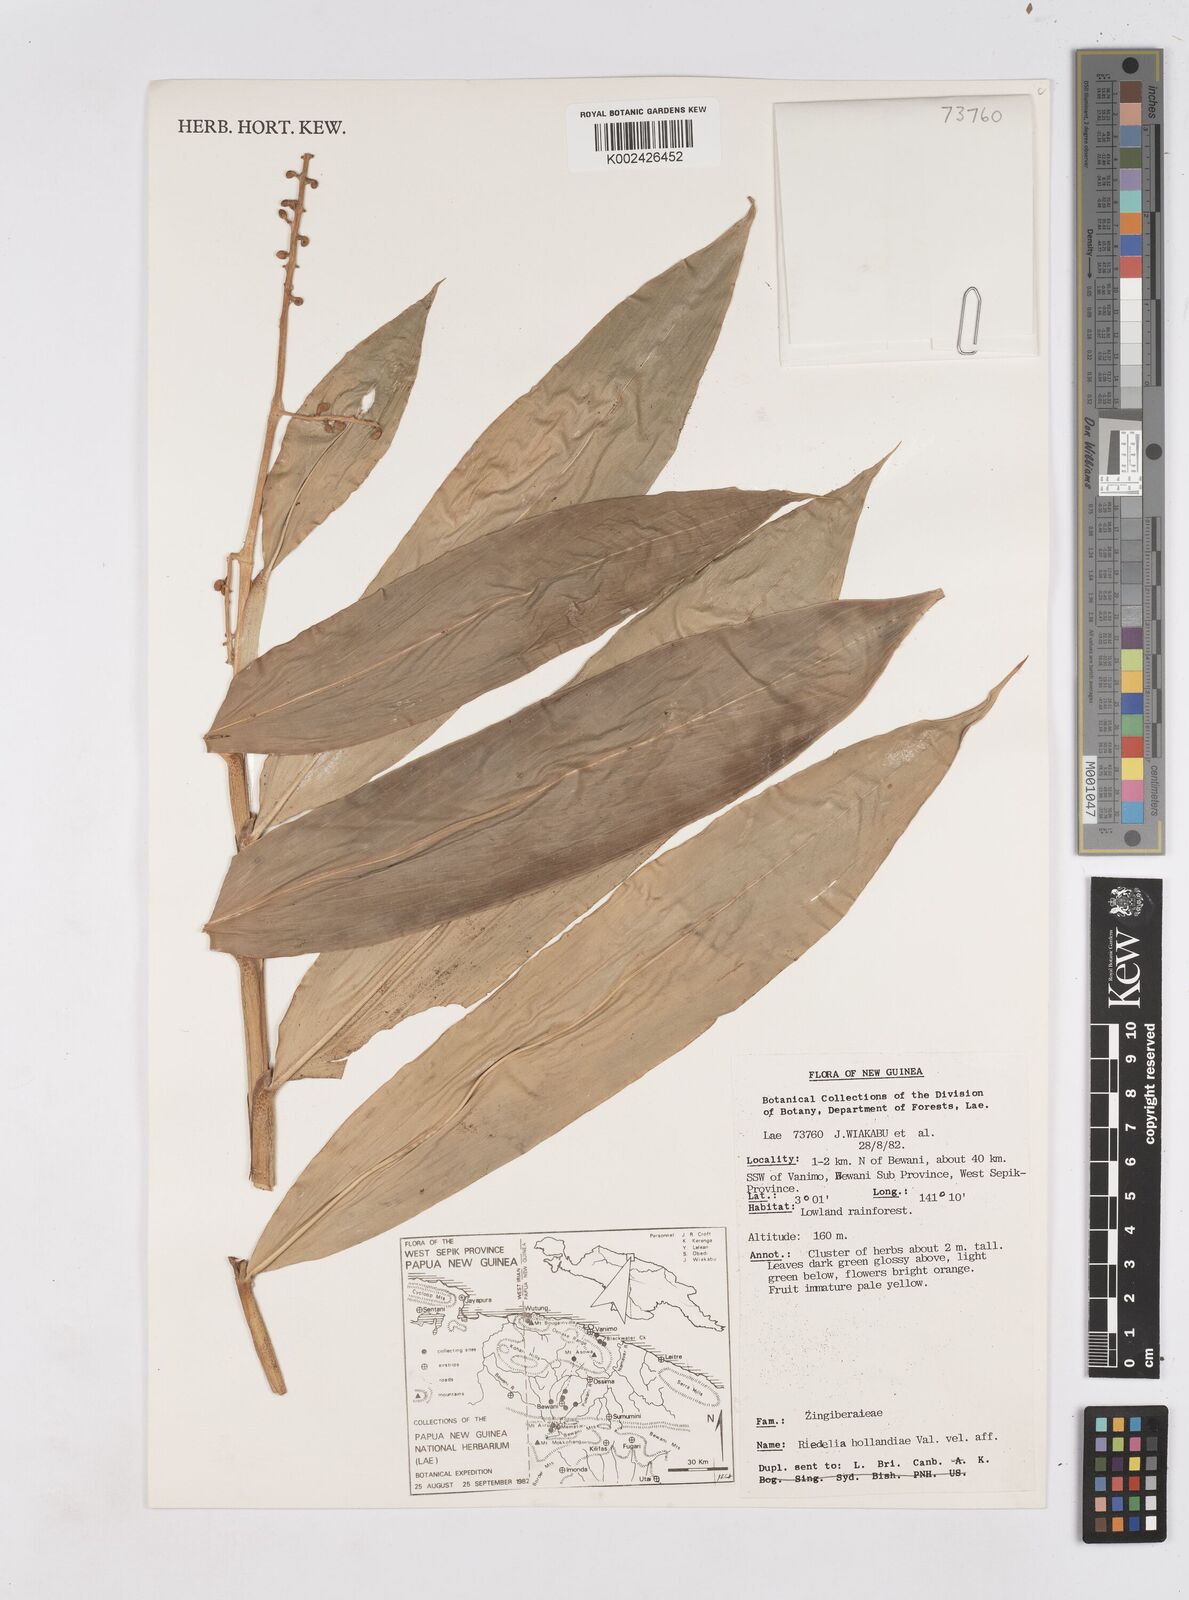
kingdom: Plantae
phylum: Tracheophyta
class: Liliopsida
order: Zingiberales
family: Zingiberaceae
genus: Riedelia
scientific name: Riedelia hollandiae
